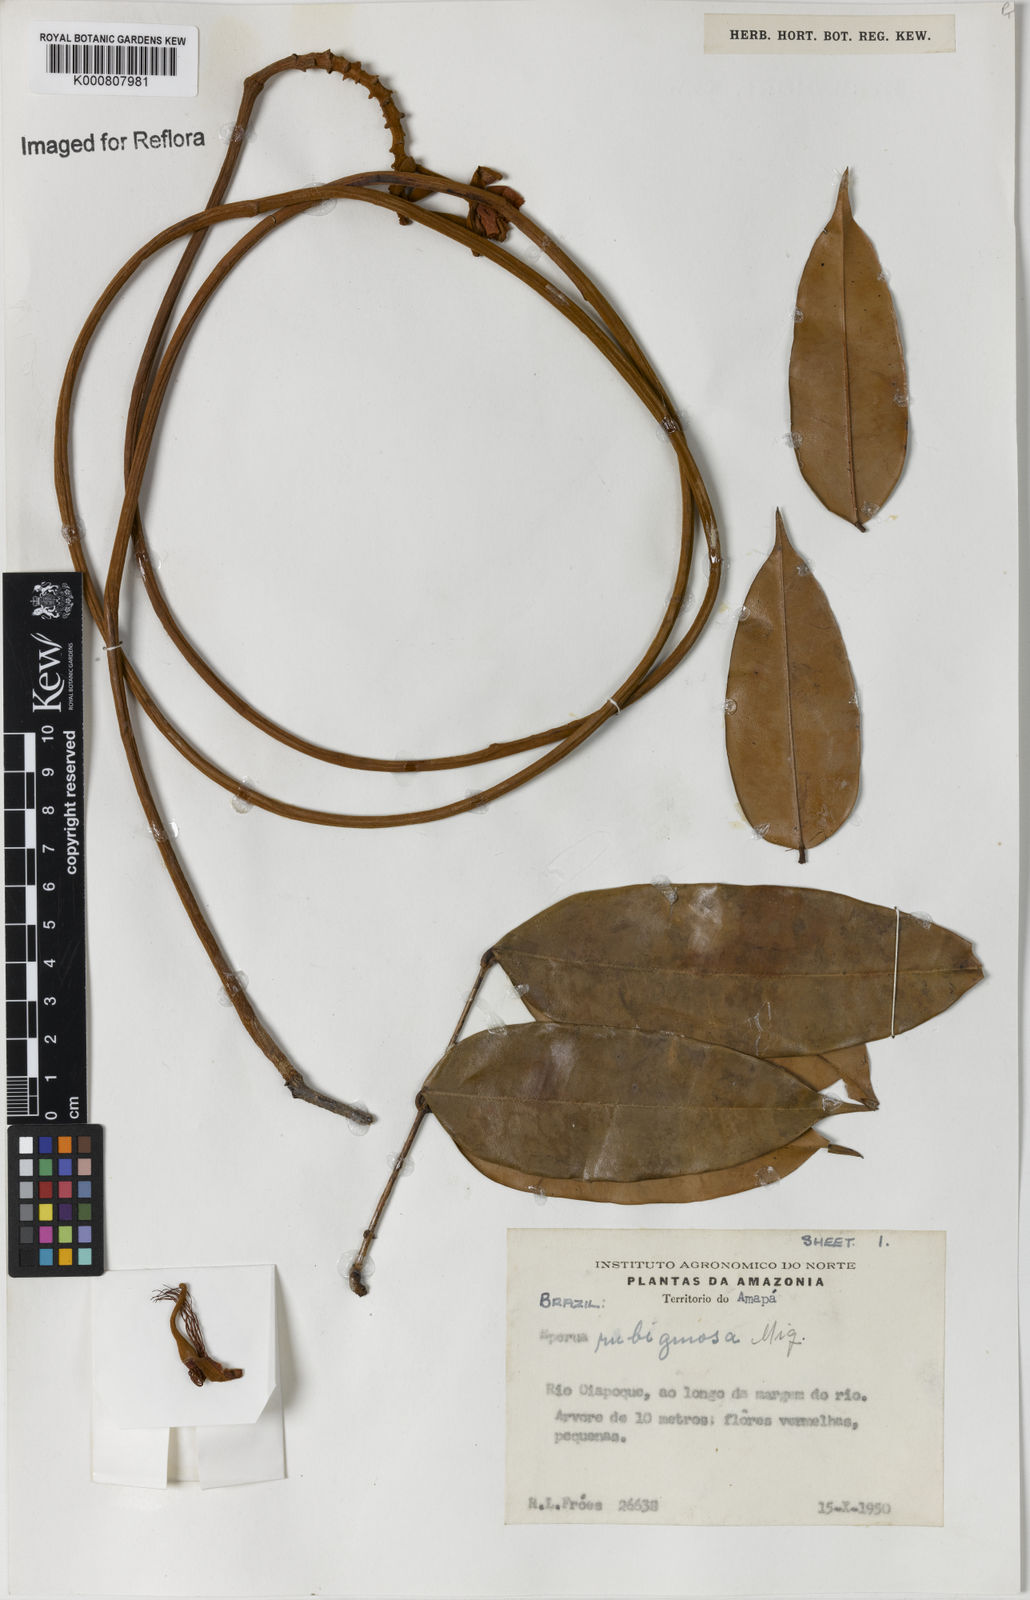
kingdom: Plantae
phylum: Tracheophyta
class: Magnoliopsida
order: Fabales
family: Fabaceae
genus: Eperua
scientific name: Eperua rubiginosa
